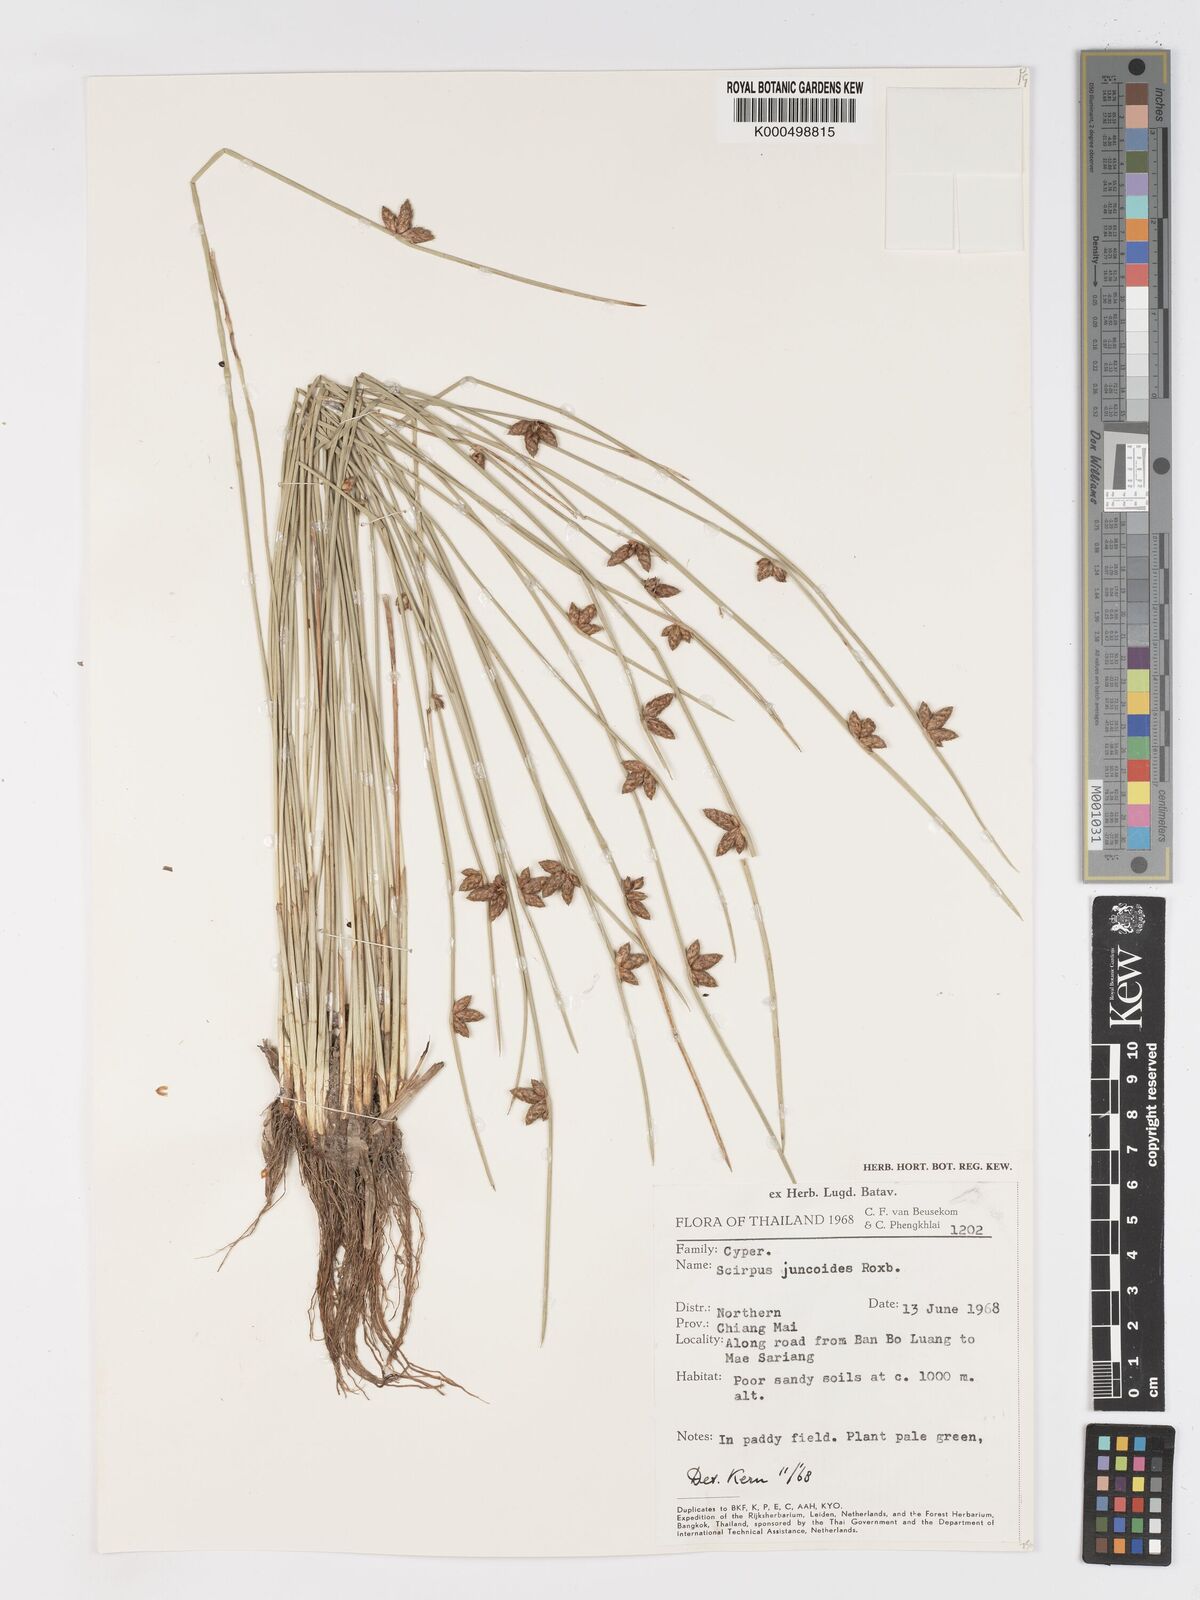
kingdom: Plantae
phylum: Tracheophyta
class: Liliopsida
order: Poales
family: Cyperaceae
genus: Schoenoplectiella
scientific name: Schoenoplectiella juncoides
